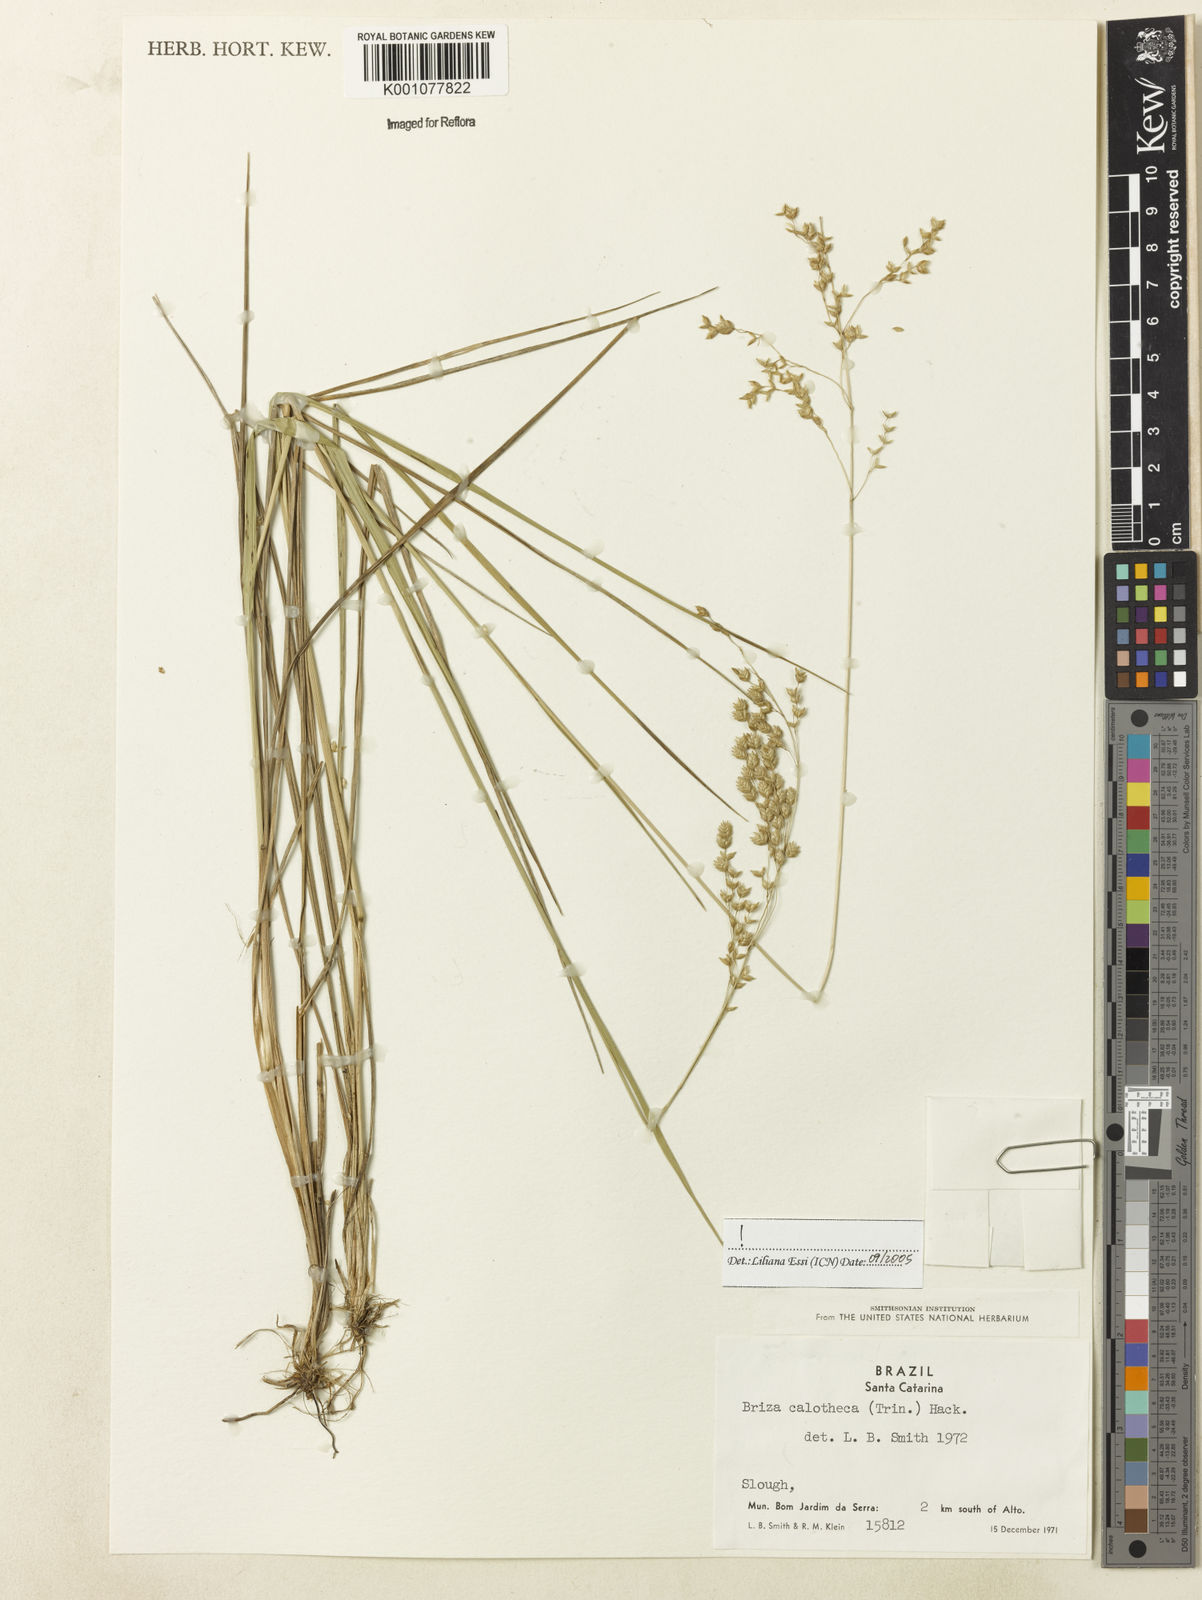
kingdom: Plantae
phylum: Tracheophyta
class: Liliopsida
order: Poales
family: Poaceae
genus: Poidium
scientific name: Poidium calotheca
